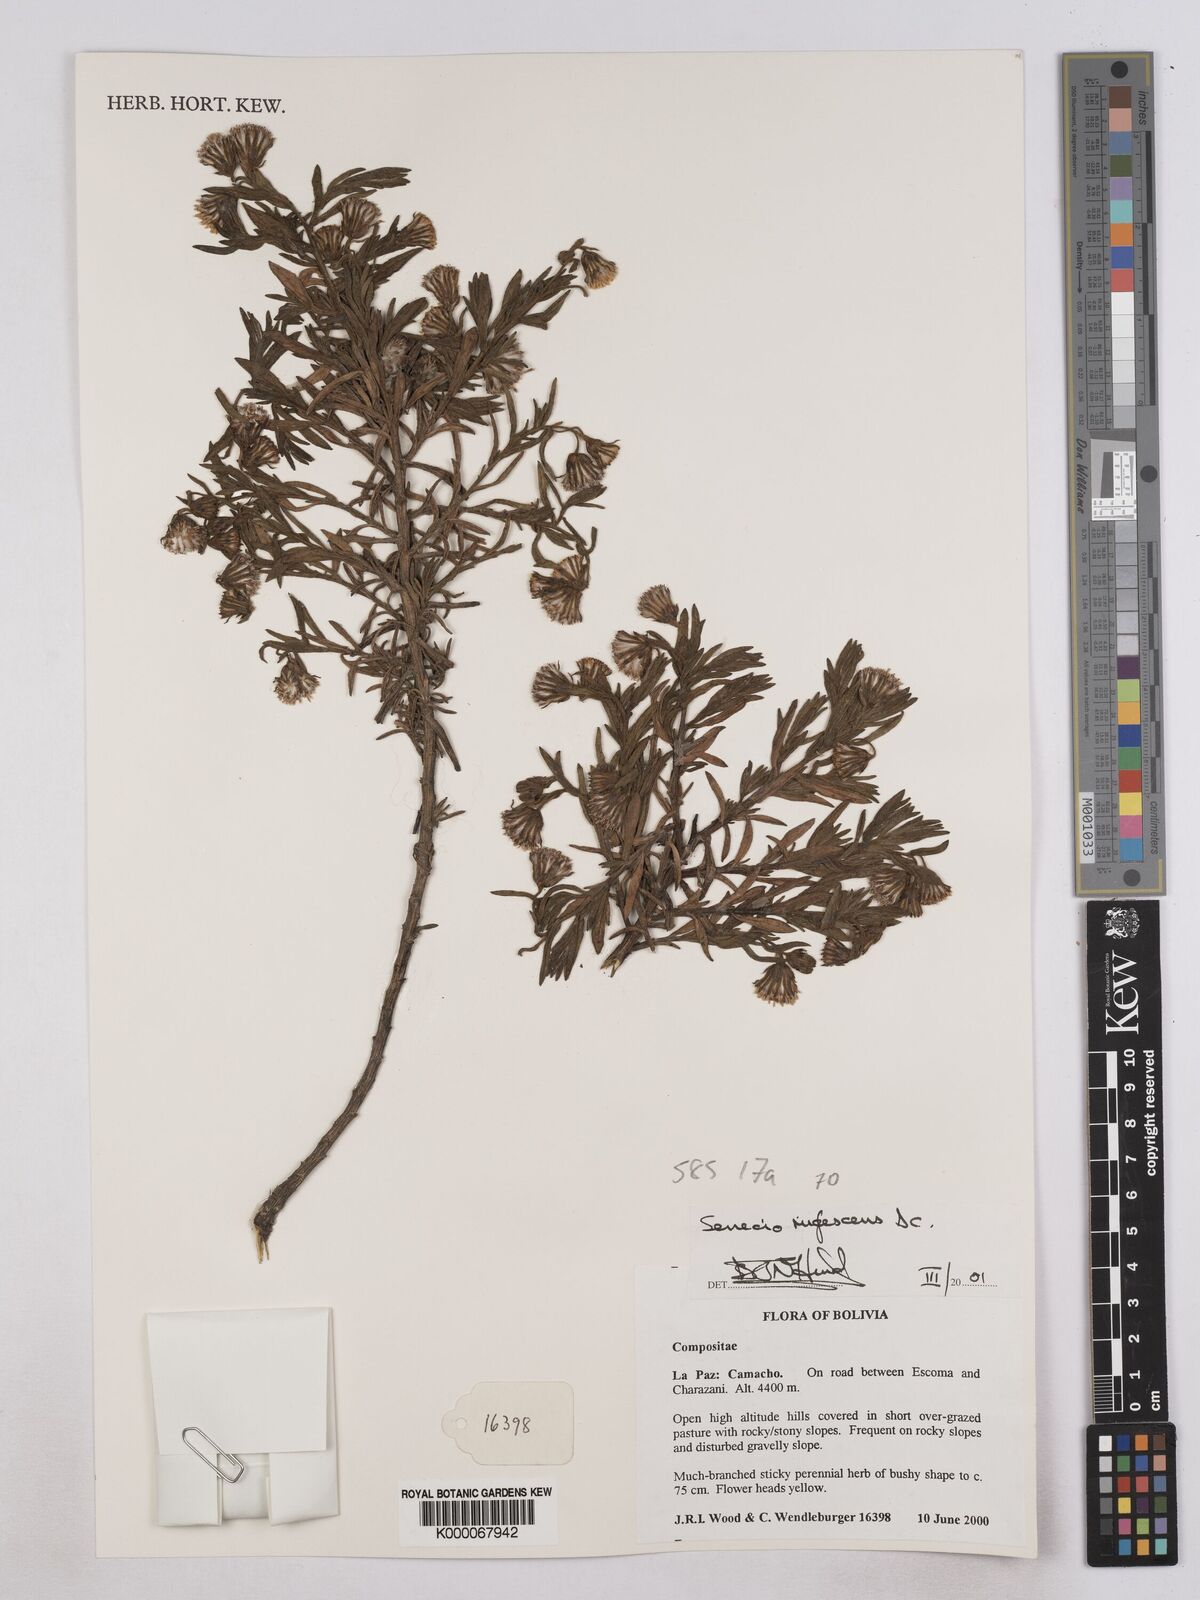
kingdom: Plantae
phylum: Tracheophyta
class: Magnoliopsida
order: Asterales
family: Asteraceae
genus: Senecio
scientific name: Senecio rufescens
